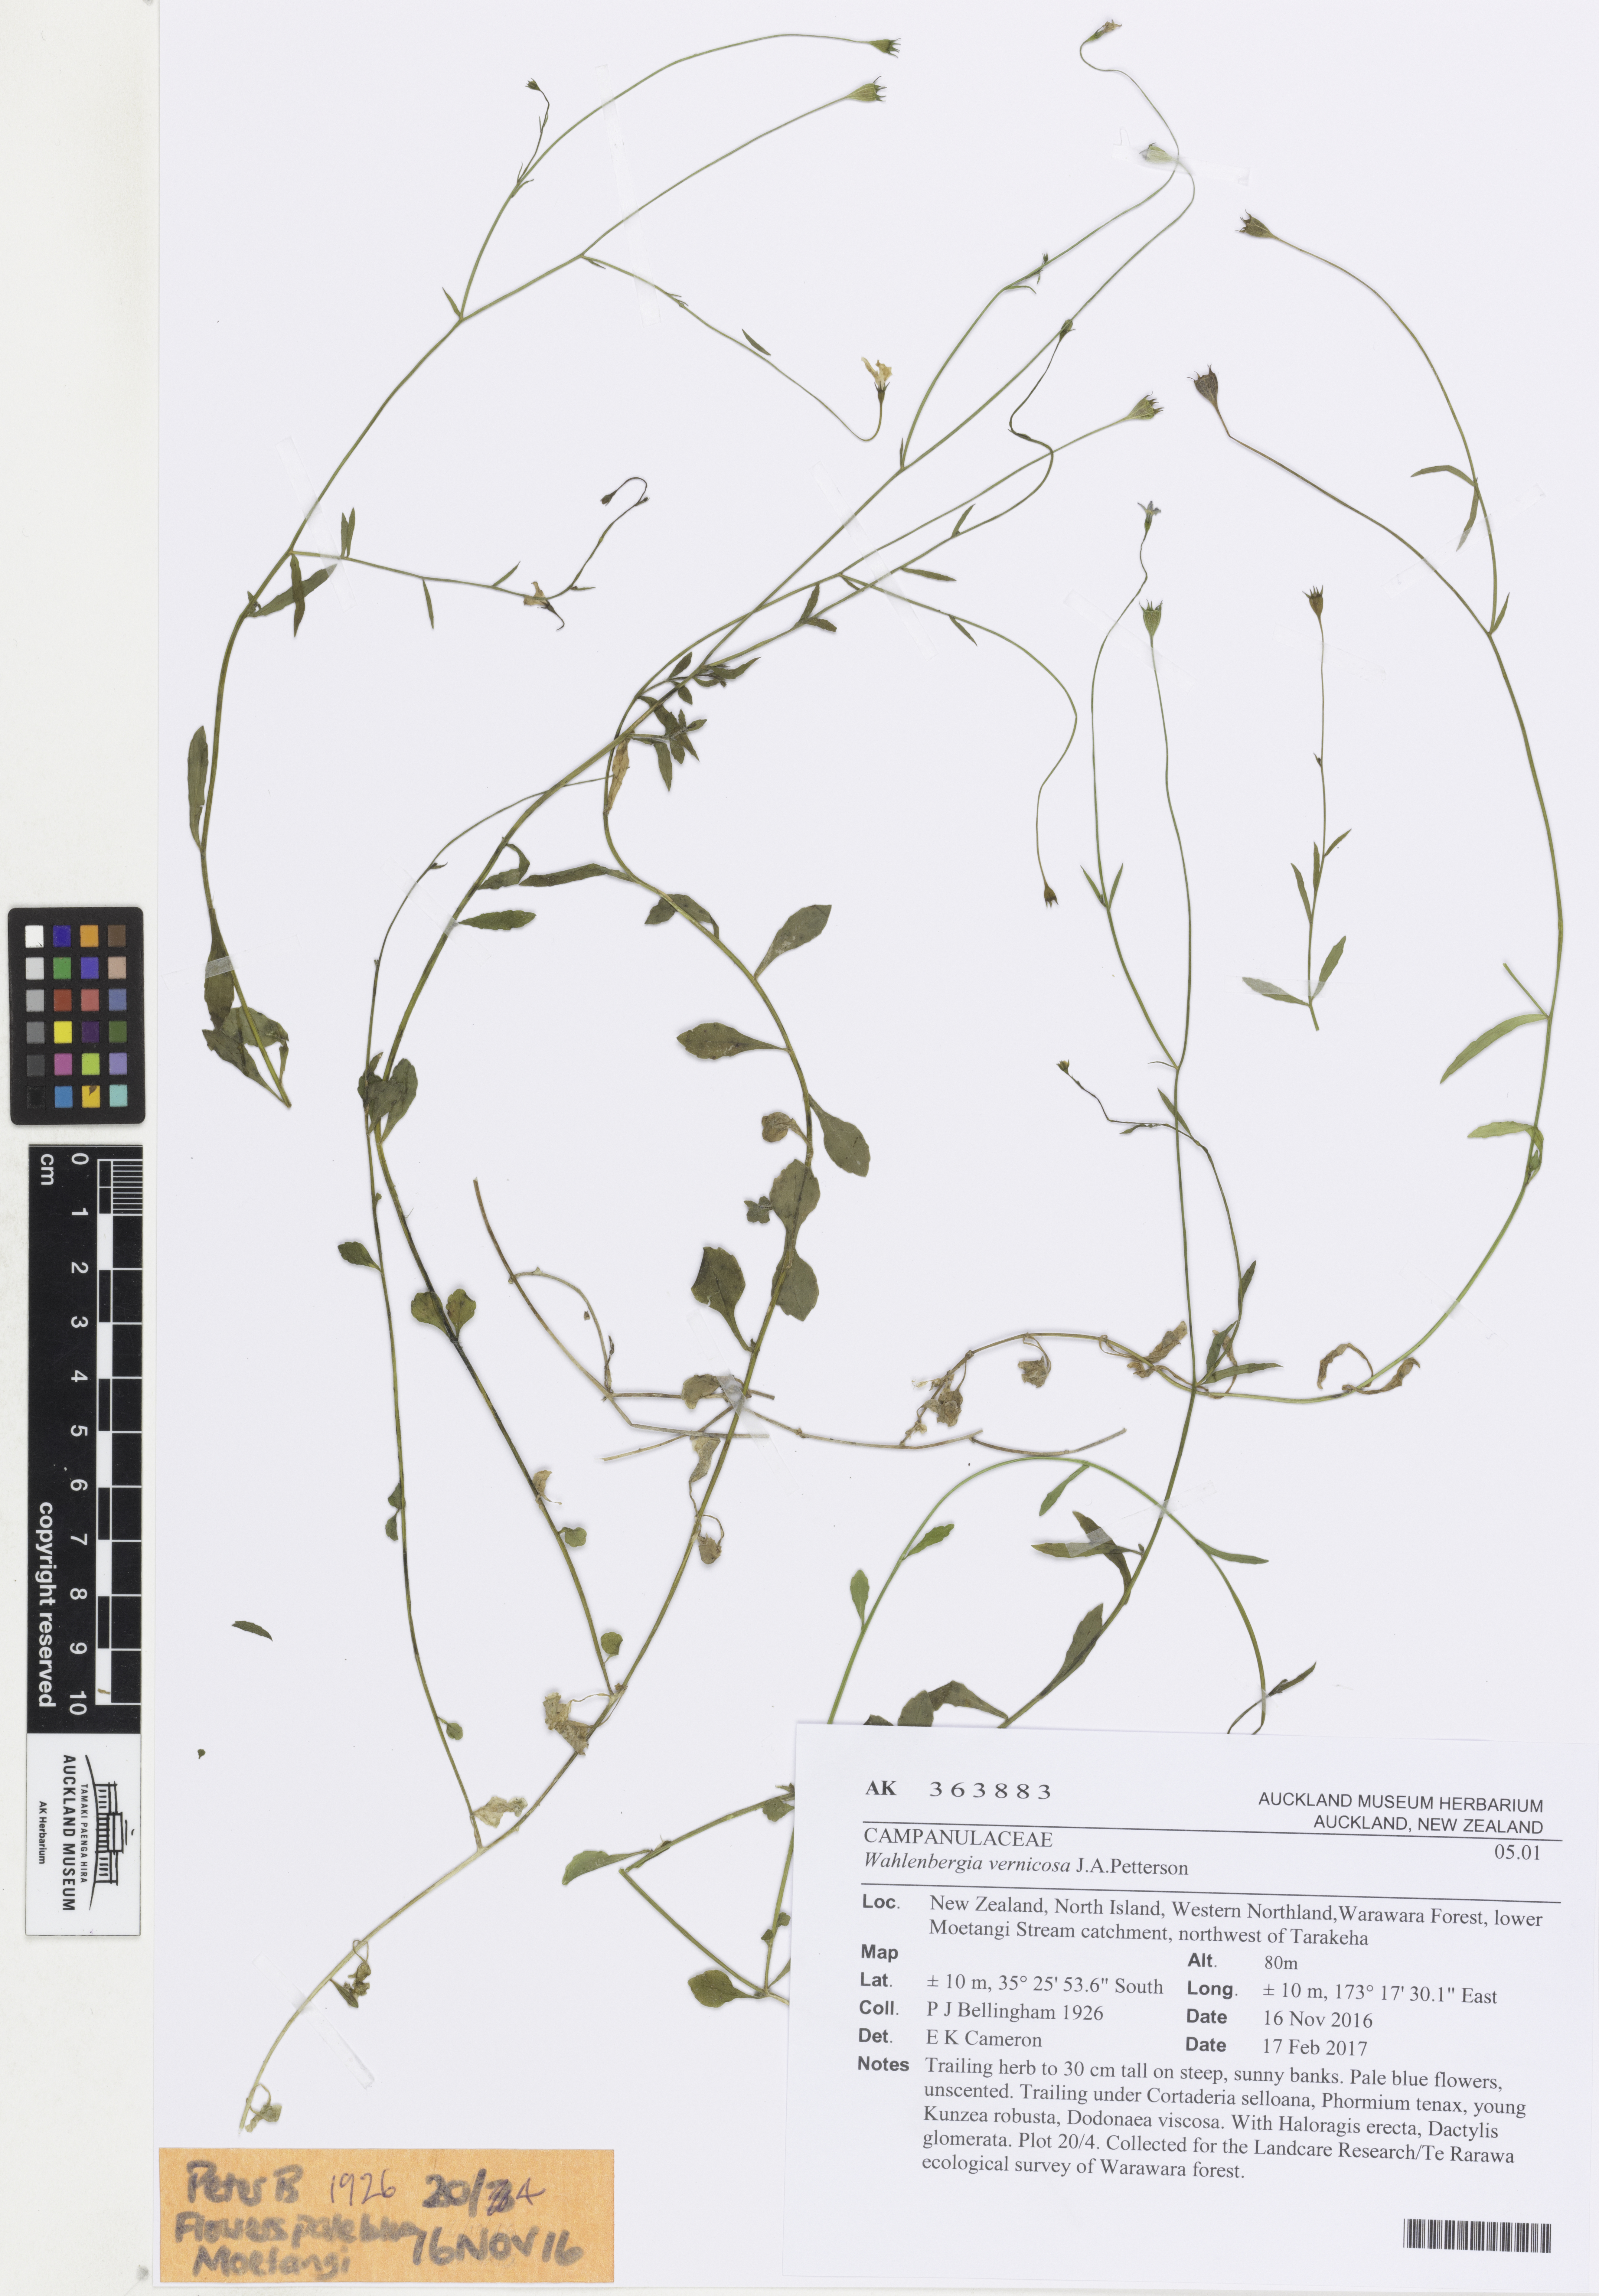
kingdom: Plantae
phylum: Tracheophyta
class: Magnoliopsida
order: Asterales
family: Campanulaceae
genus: Wahlenbergia
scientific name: Wahlenbergia vernicosa
